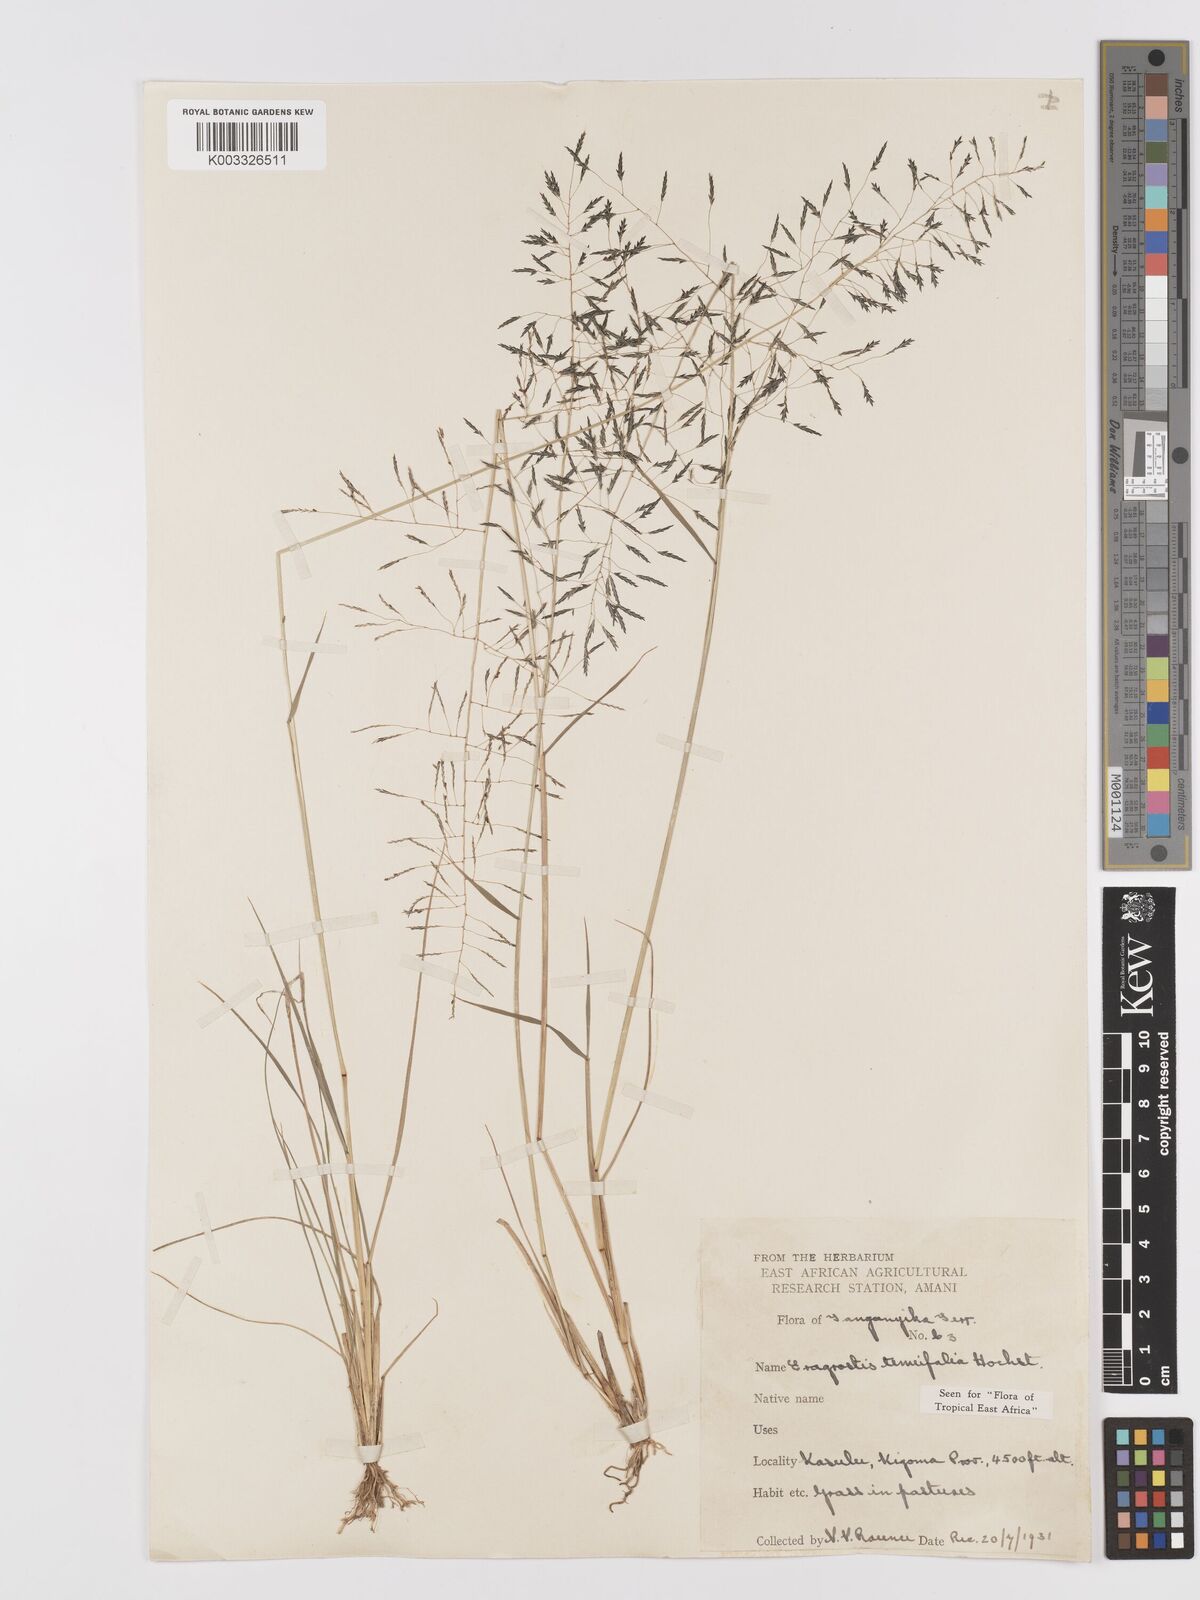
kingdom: Plantae
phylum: Tracheophyta
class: Liliopsida
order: Poales
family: Poaceae
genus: Eragrostis
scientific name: Eragrostis tenuifolia
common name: Elastic grass
